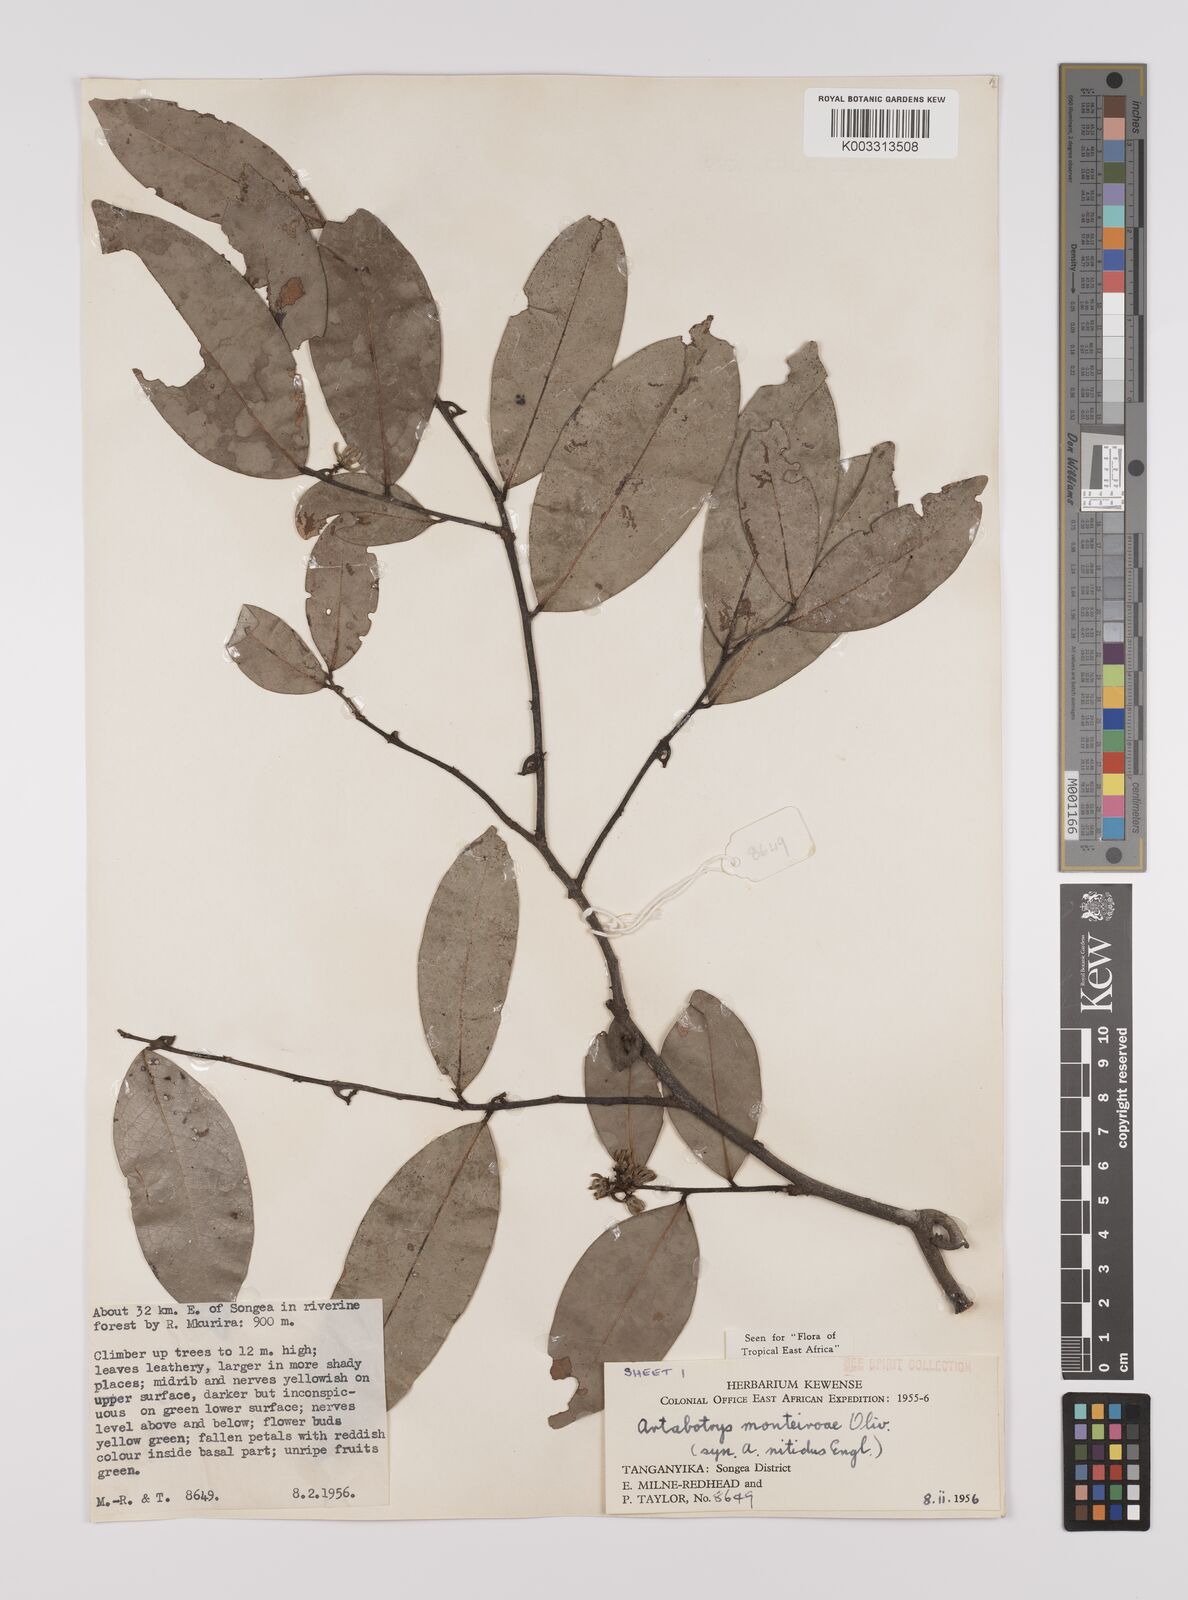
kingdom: Plantae
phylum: Tracheophyta
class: Magnoliopsida
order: Magnoliales
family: Annonaceae
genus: Artabotrys
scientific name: Artabotrys monteiroae
